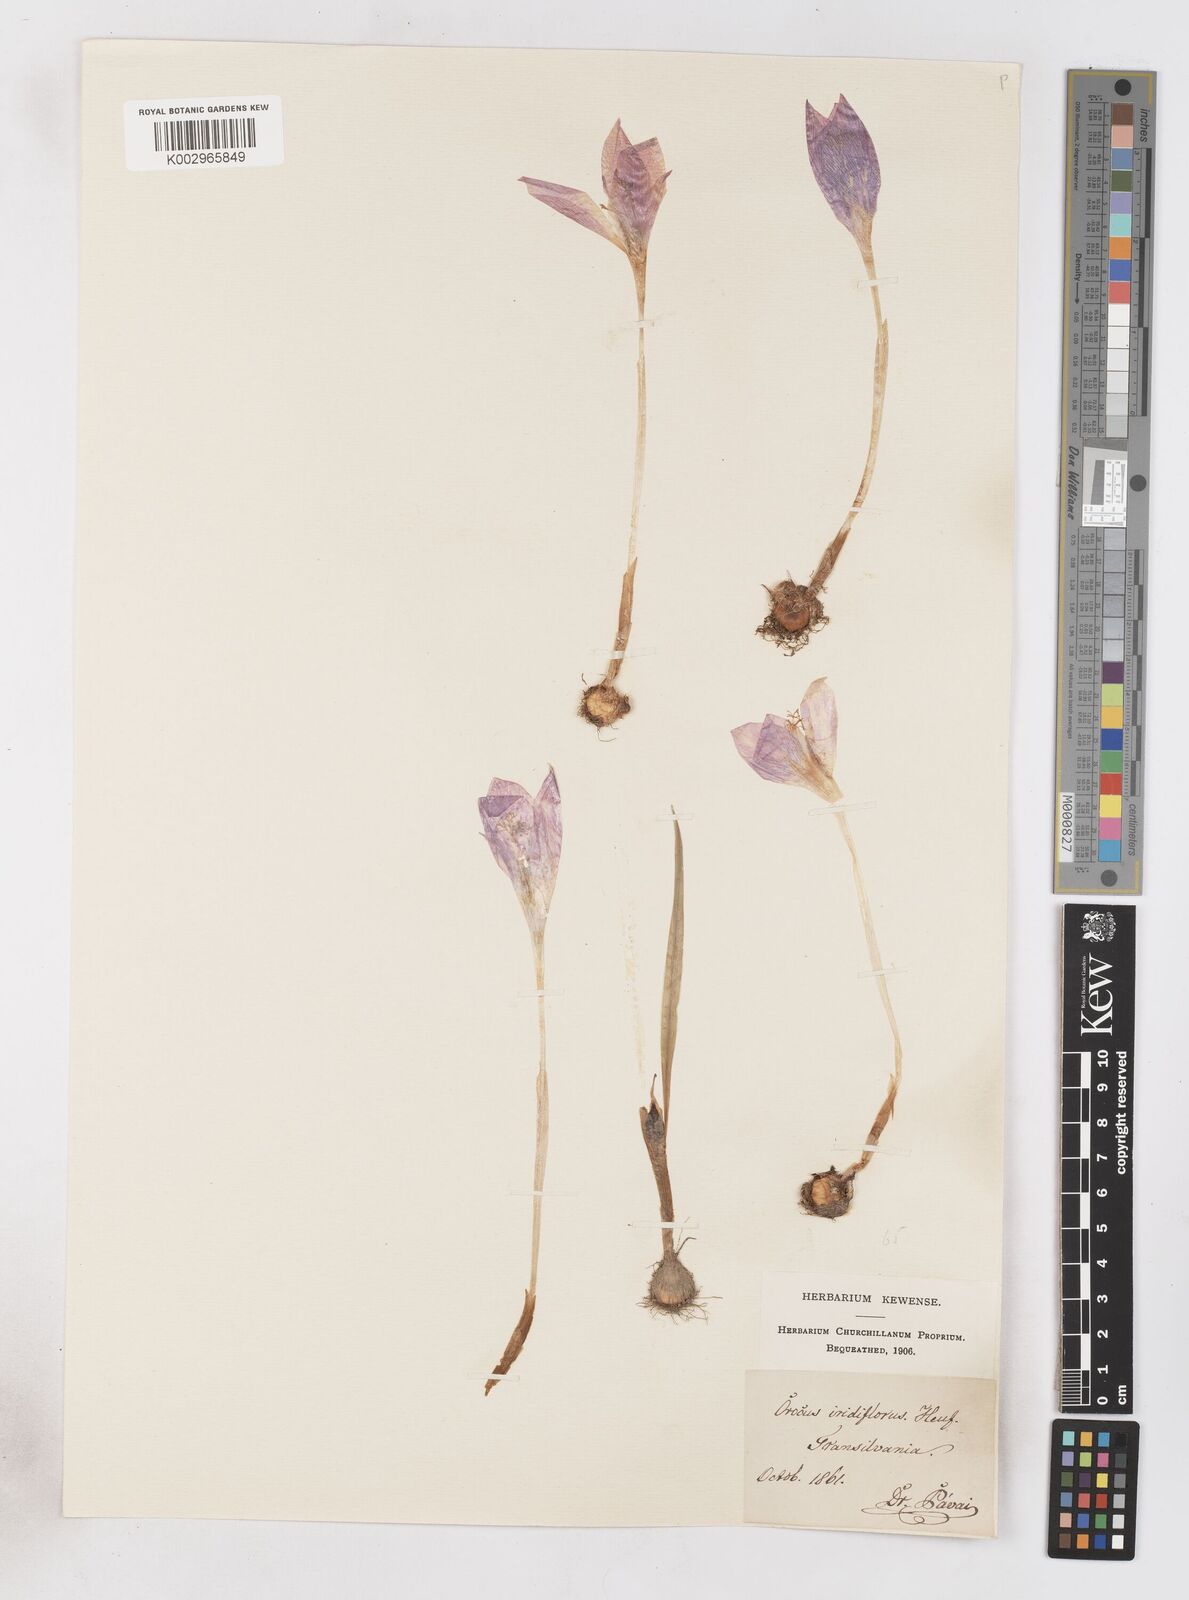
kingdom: Plantae
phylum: Tracheophyta
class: Liliopsida
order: Asparagales
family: Iridaceae
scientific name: Iridaceae
